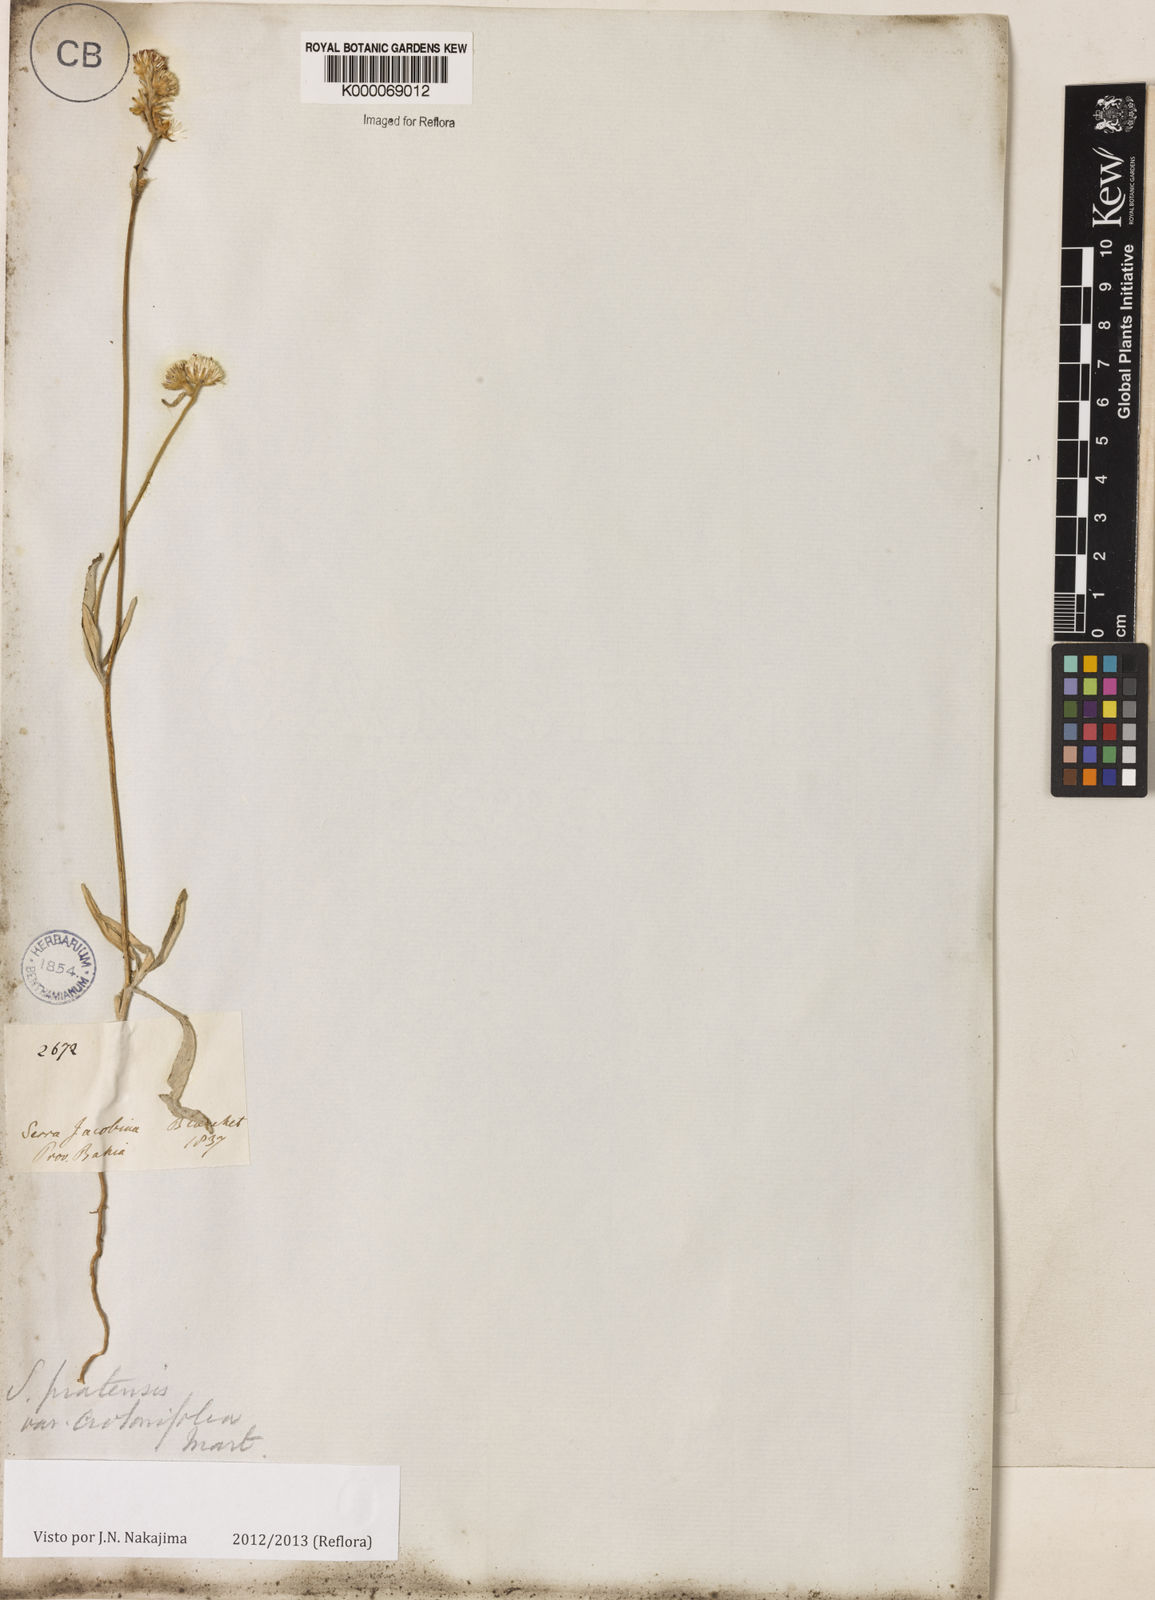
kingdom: Plantae
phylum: Tracheophyta
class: Magnoliopsida
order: Asterales
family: Asteraceae
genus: Stilpnopappus
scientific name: Stilpnopappus pratensis
